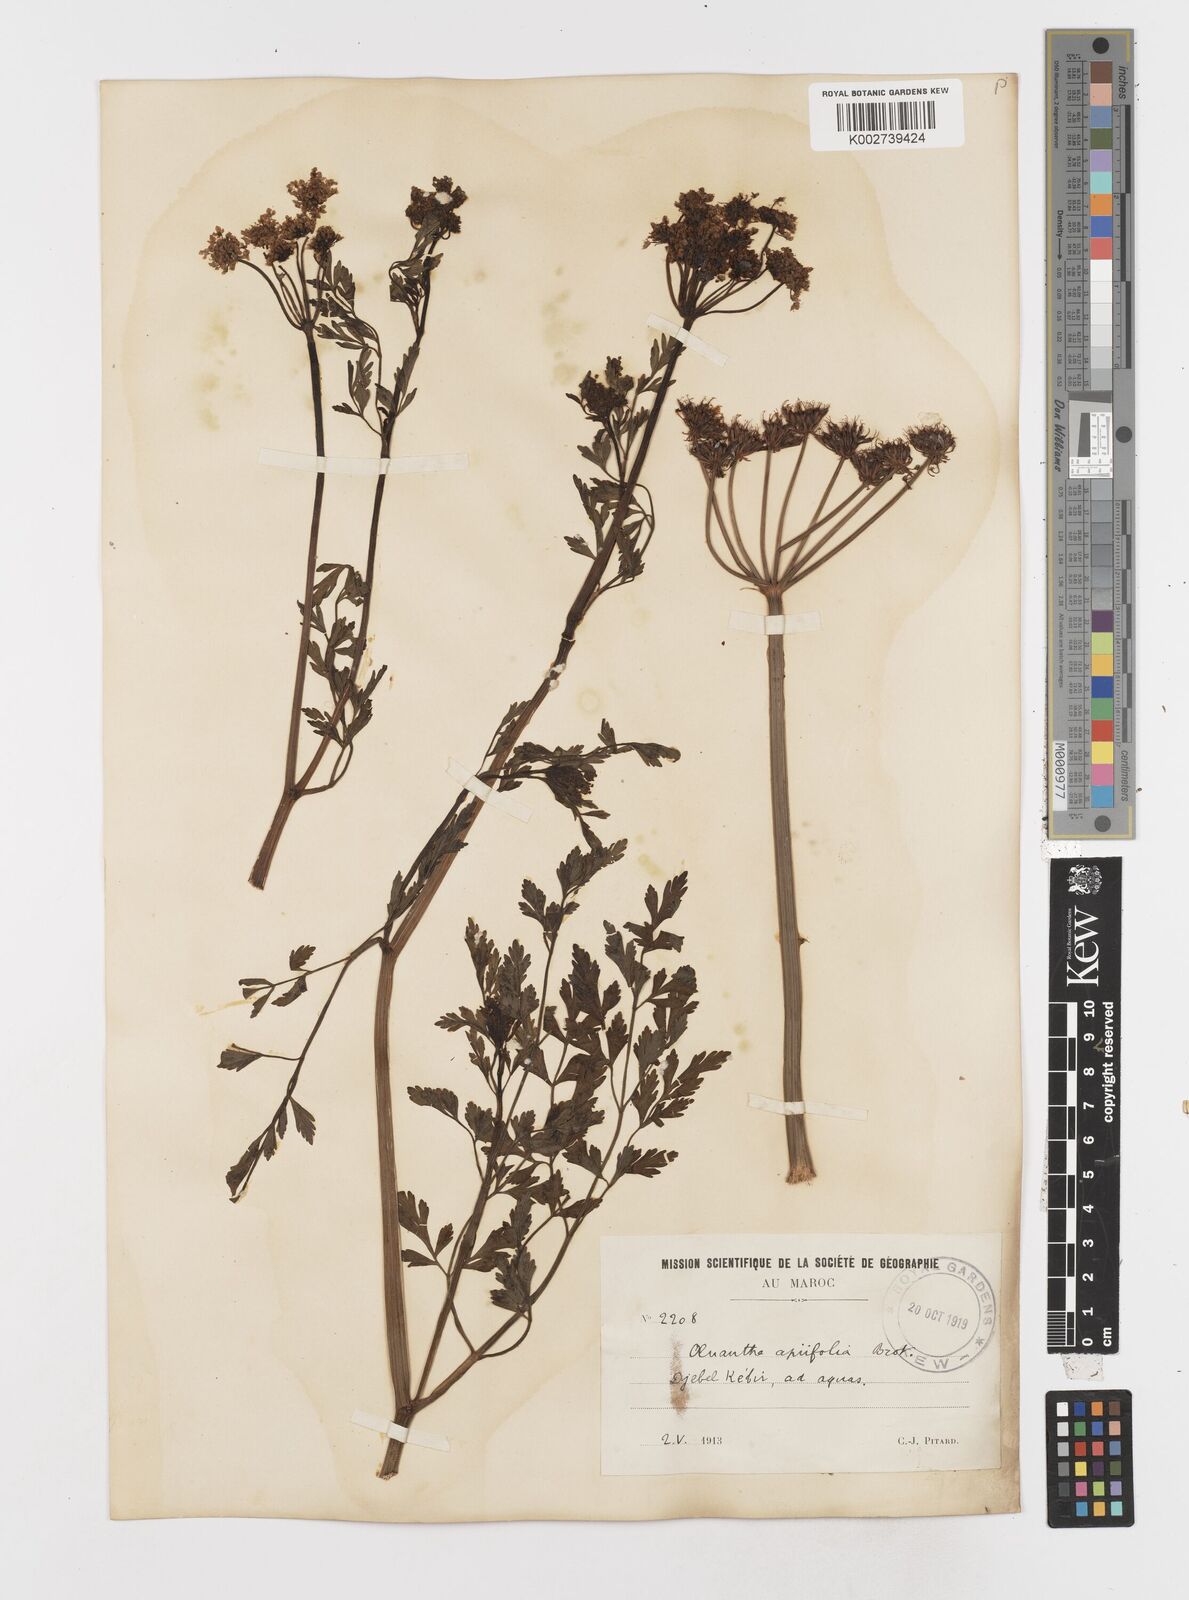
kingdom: Plantae
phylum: Tracheophyta
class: Magnoliopsida
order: Apiales
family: Apiaceae
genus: Oenanthe
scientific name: Oenanthe crocata
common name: Hemlock water-dropwort
